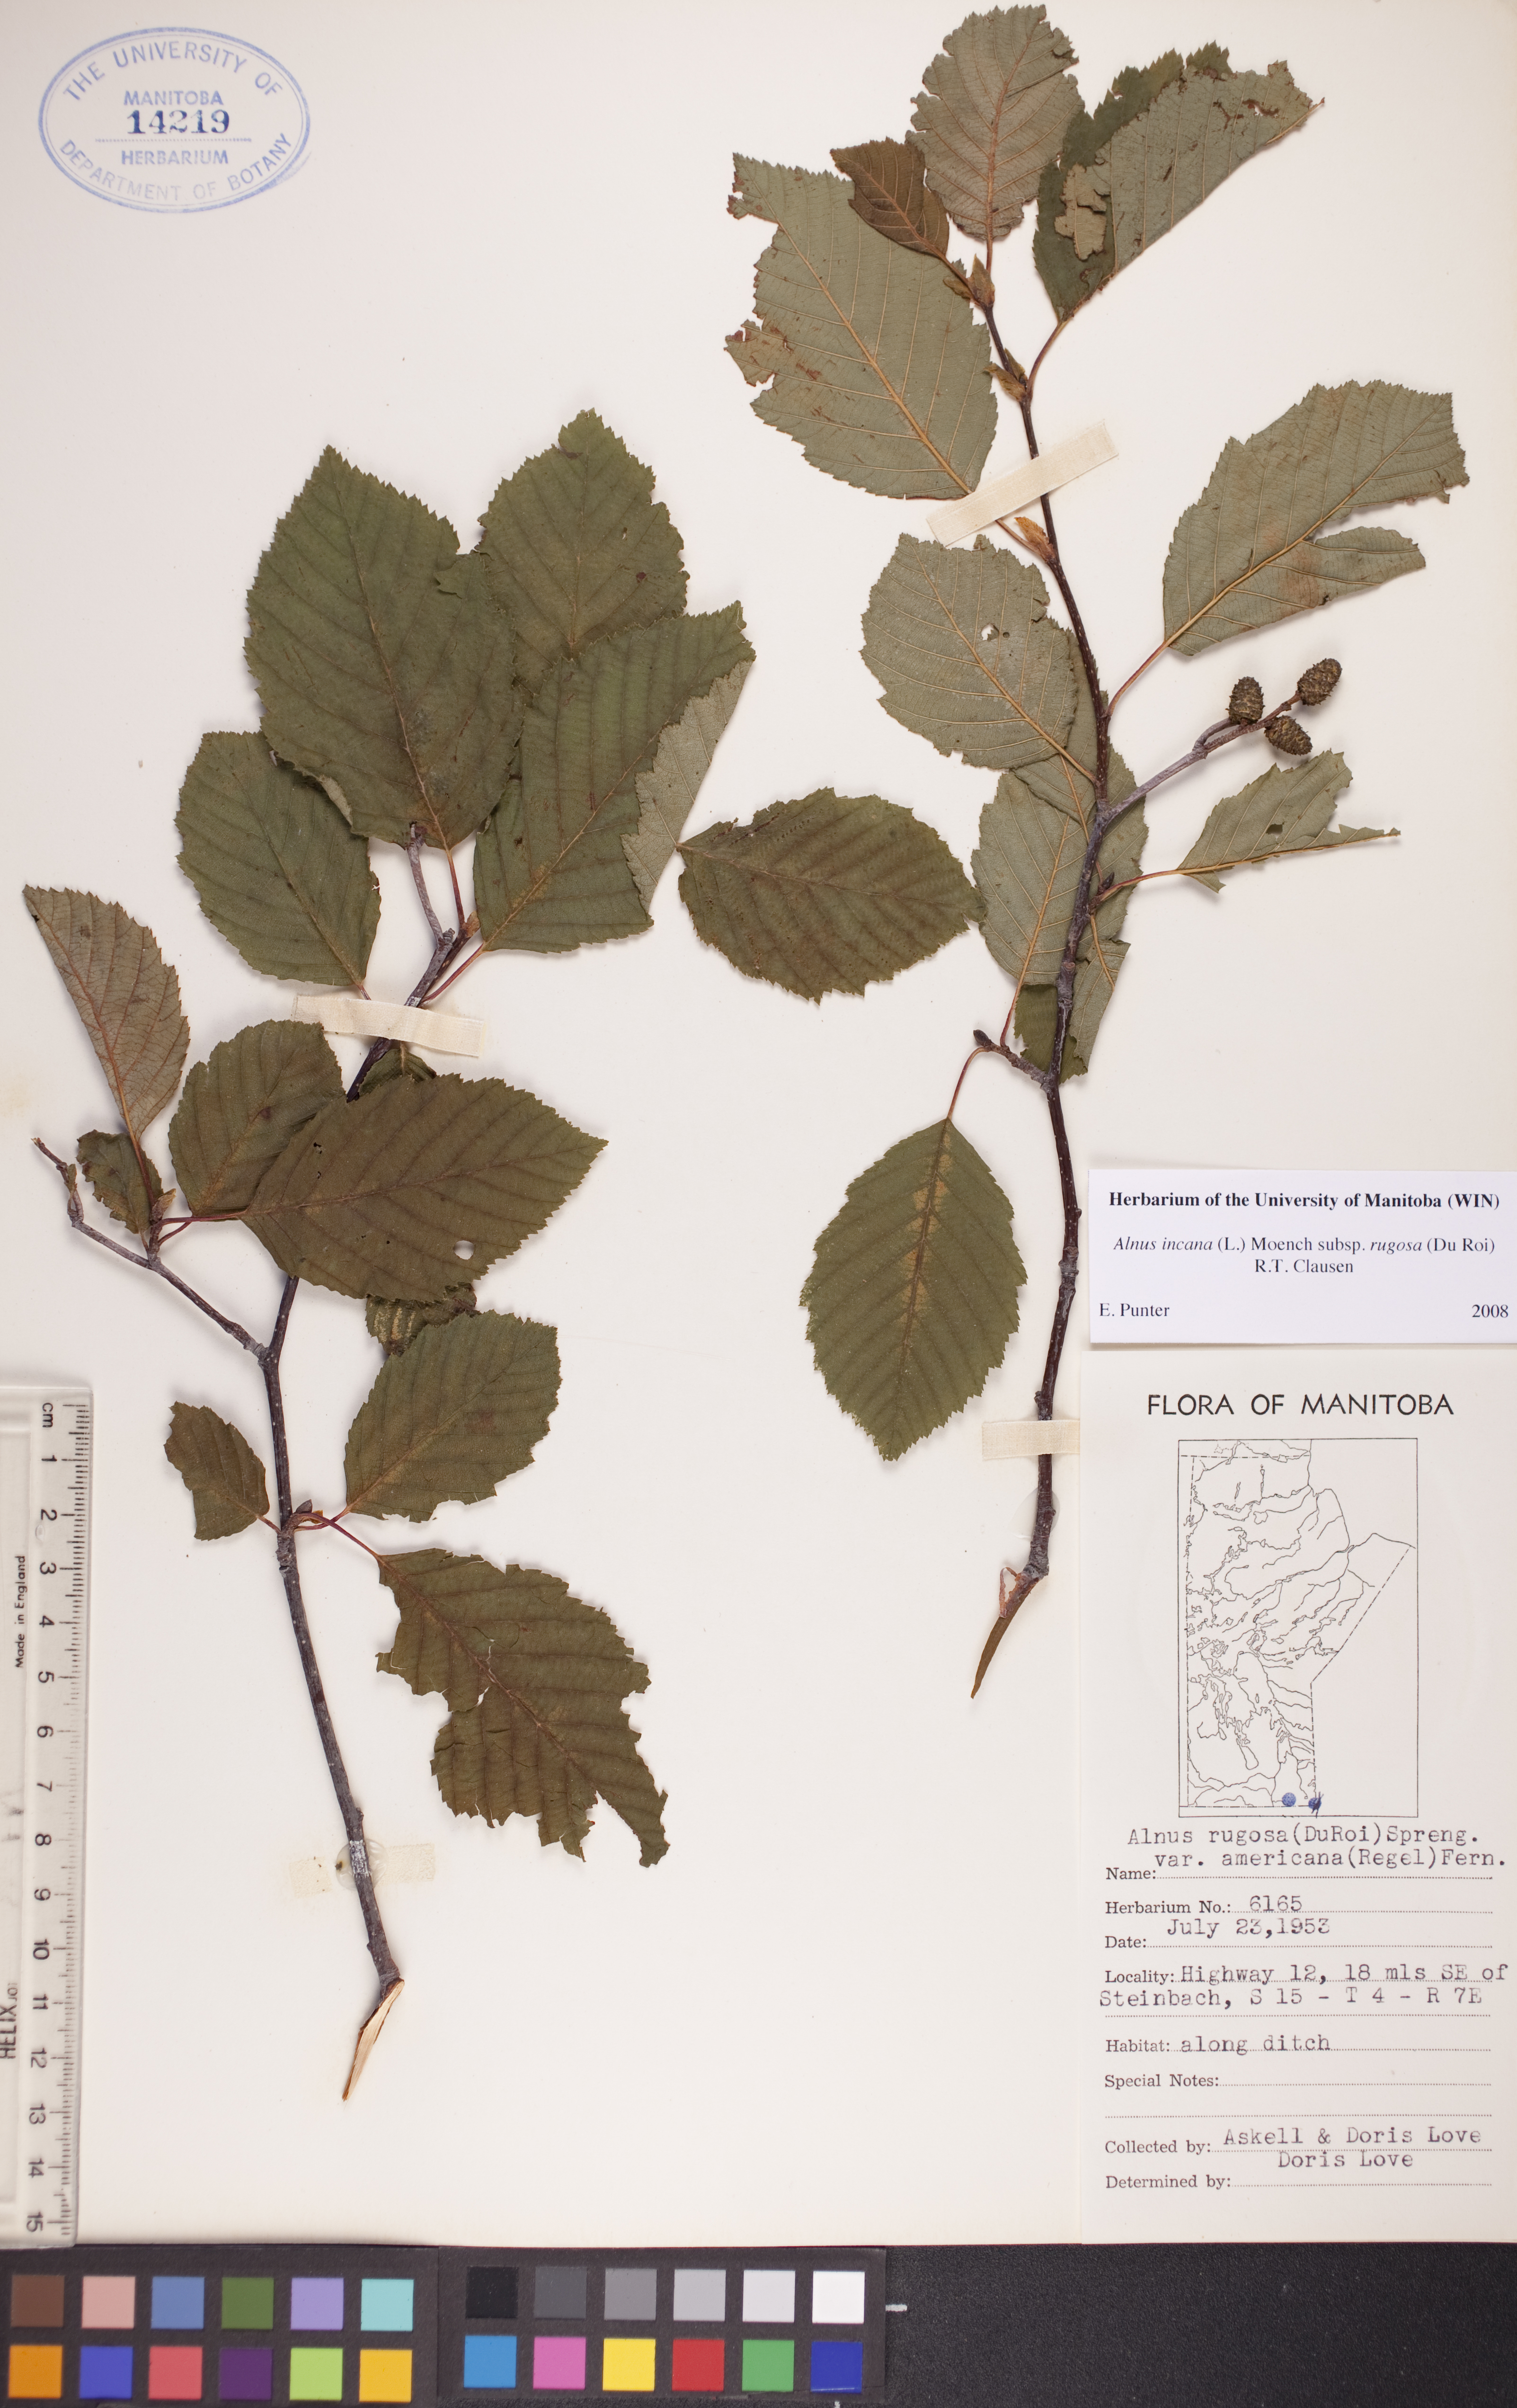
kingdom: Plantae
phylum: Tracheophyta
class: Magnoliopsida
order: Fagales
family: Betulaceae
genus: Alnus
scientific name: Alnus incana
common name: Grey alder
